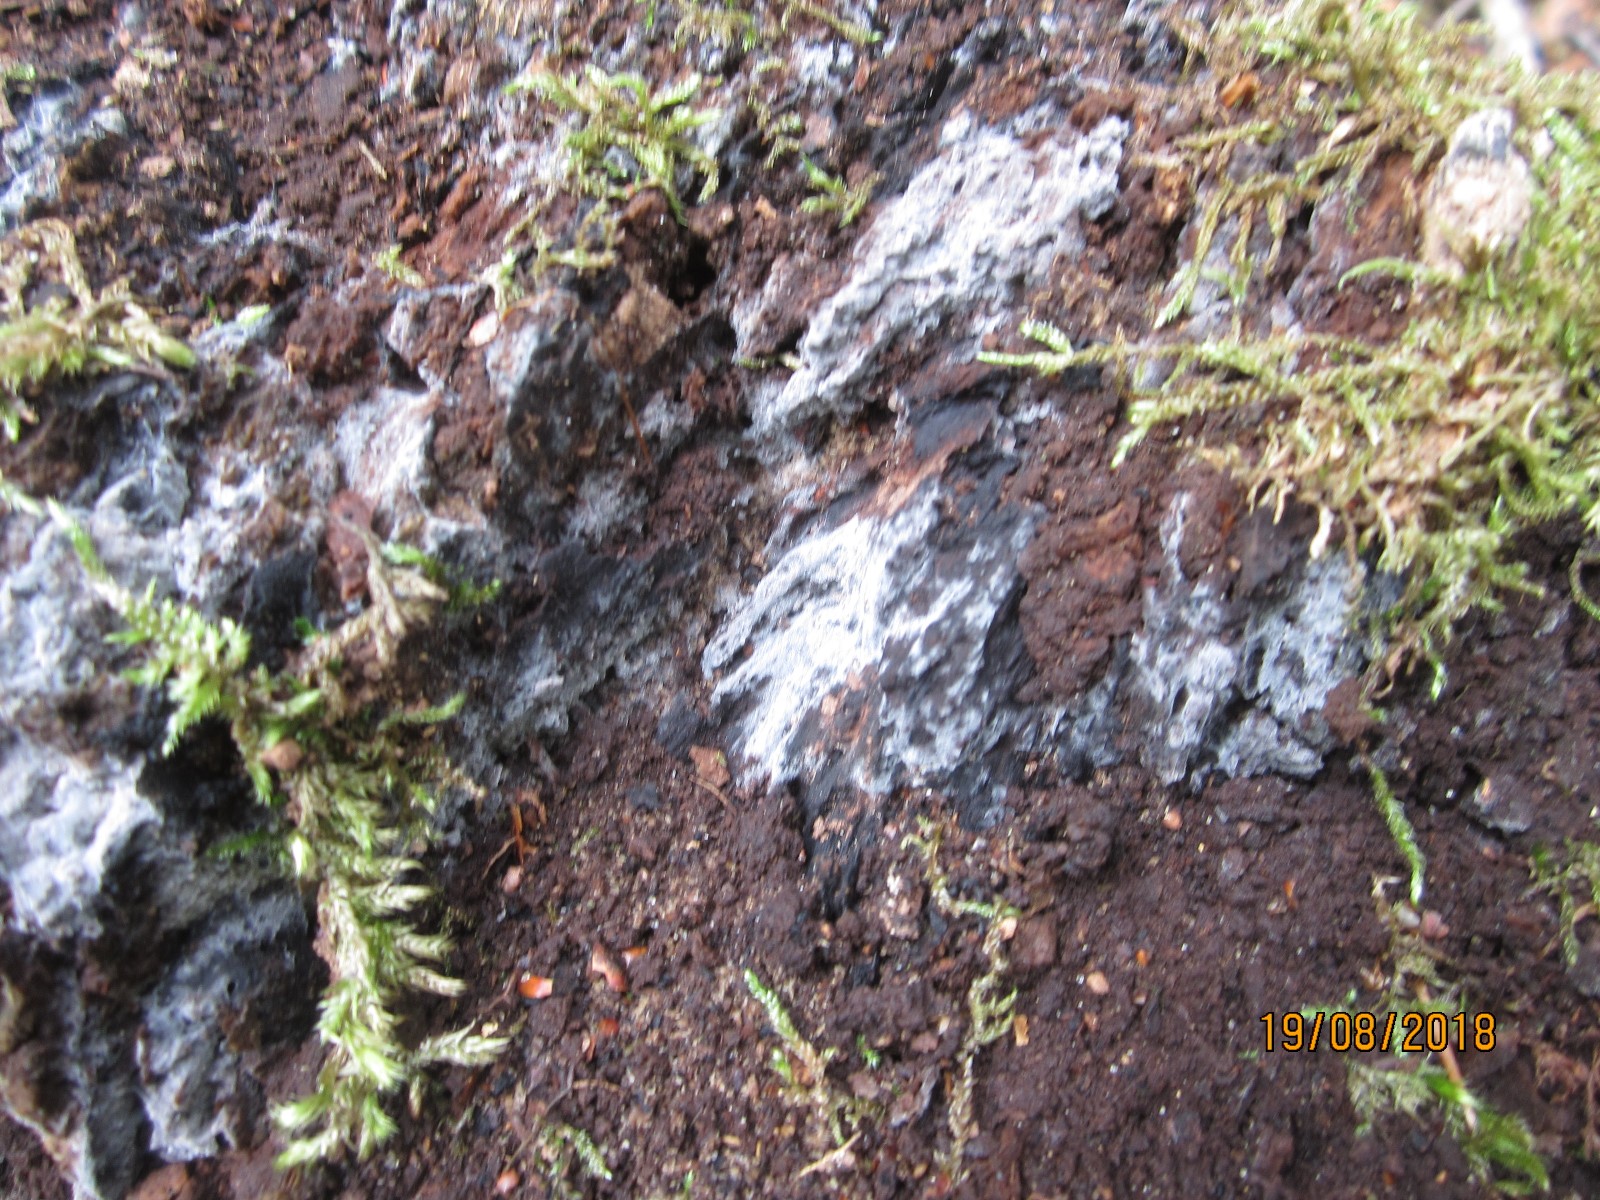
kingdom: Fungi
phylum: Basidiomycota
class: Agaricomycetes
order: Polyporales
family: Meruliaceae
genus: Physisporinus
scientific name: Physisporinus vitreus
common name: mastesvamp
